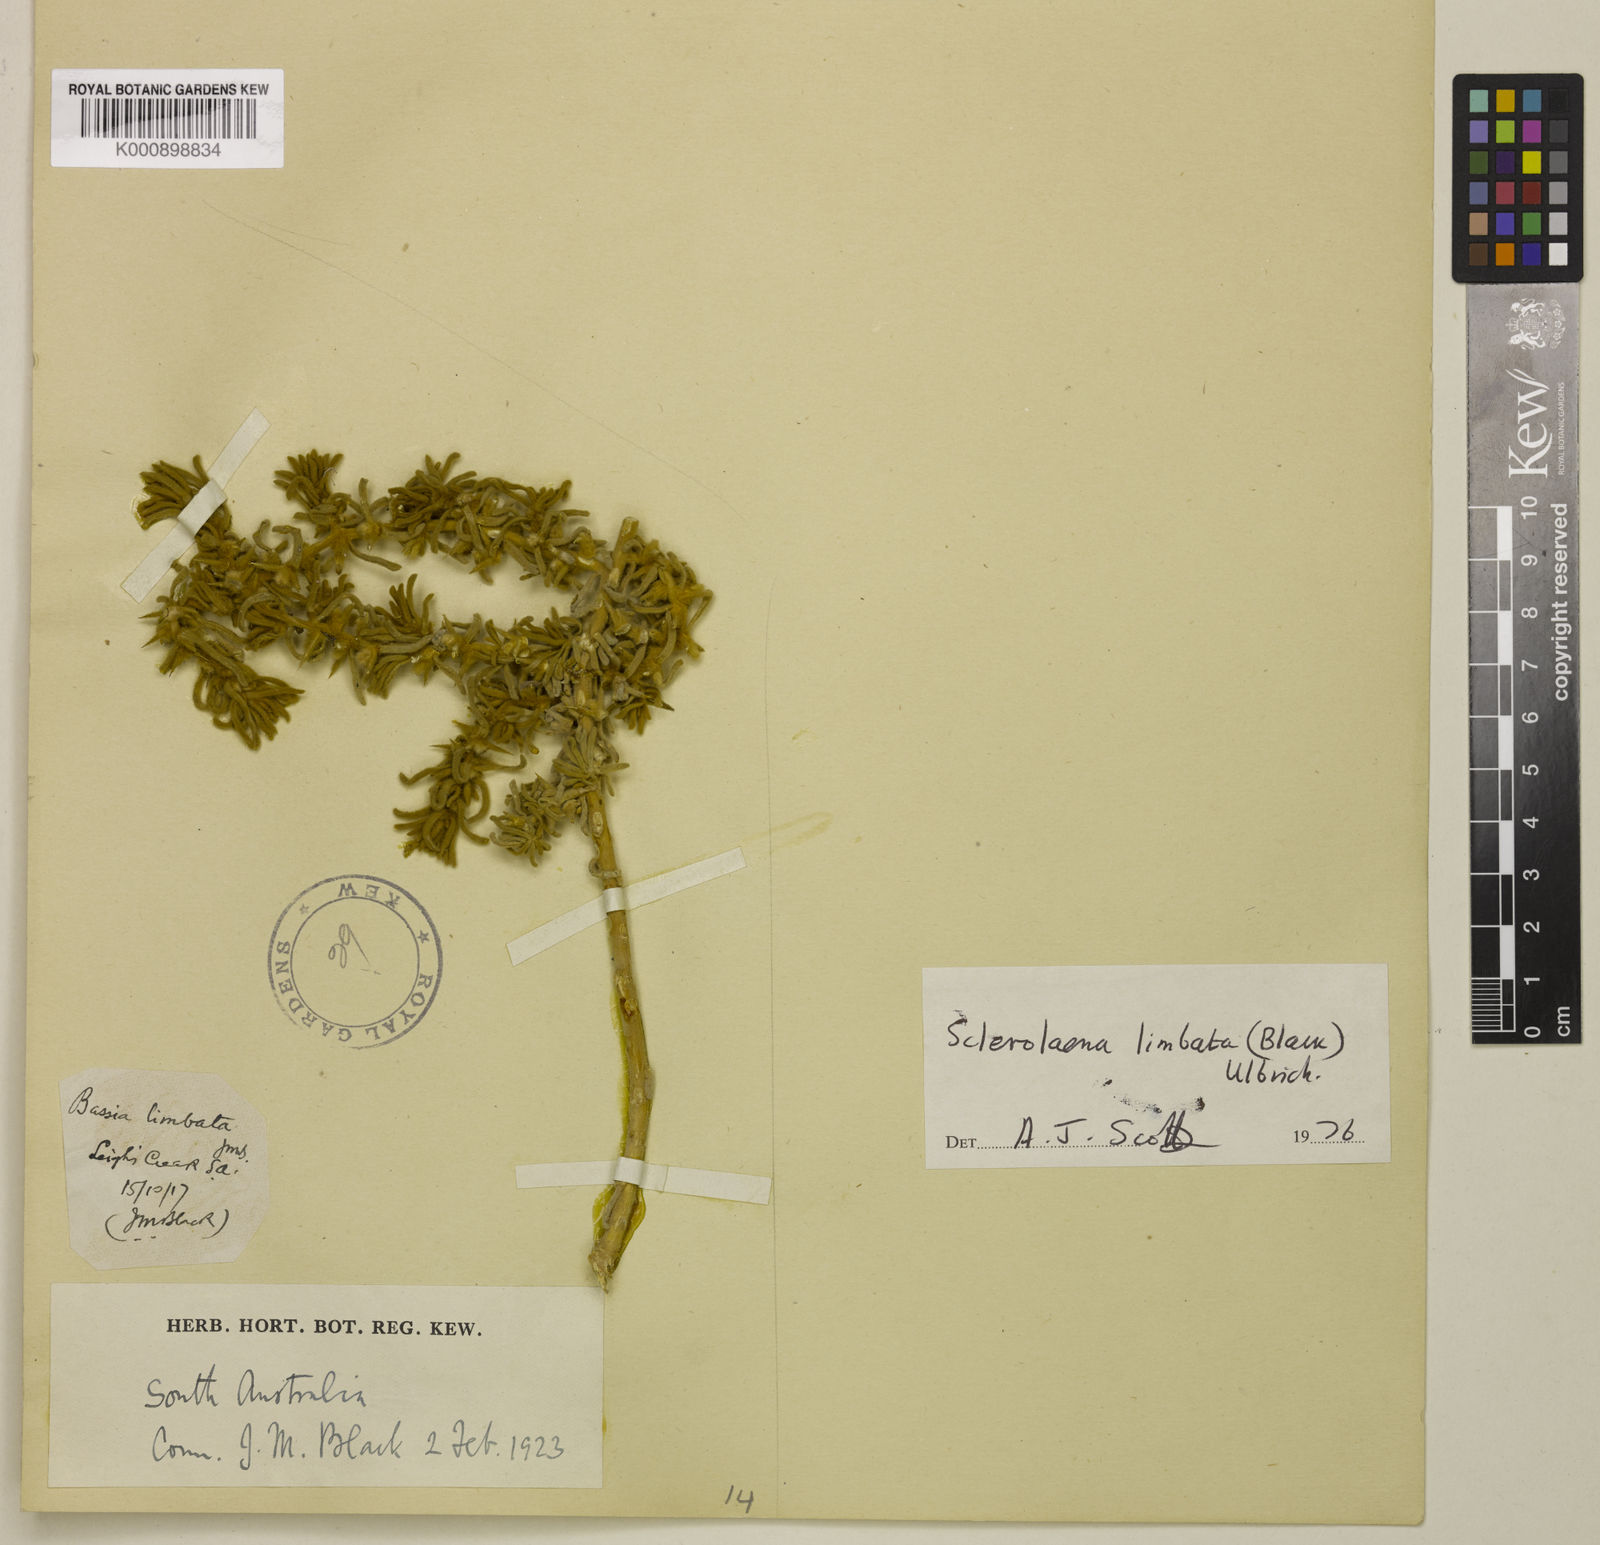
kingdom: Plantae
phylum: Tracheophyta
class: Magnoliopsida
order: Caryophyllales
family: Amaranthaceae
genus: Sclerolaena
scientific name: Sclerolaena limbata
